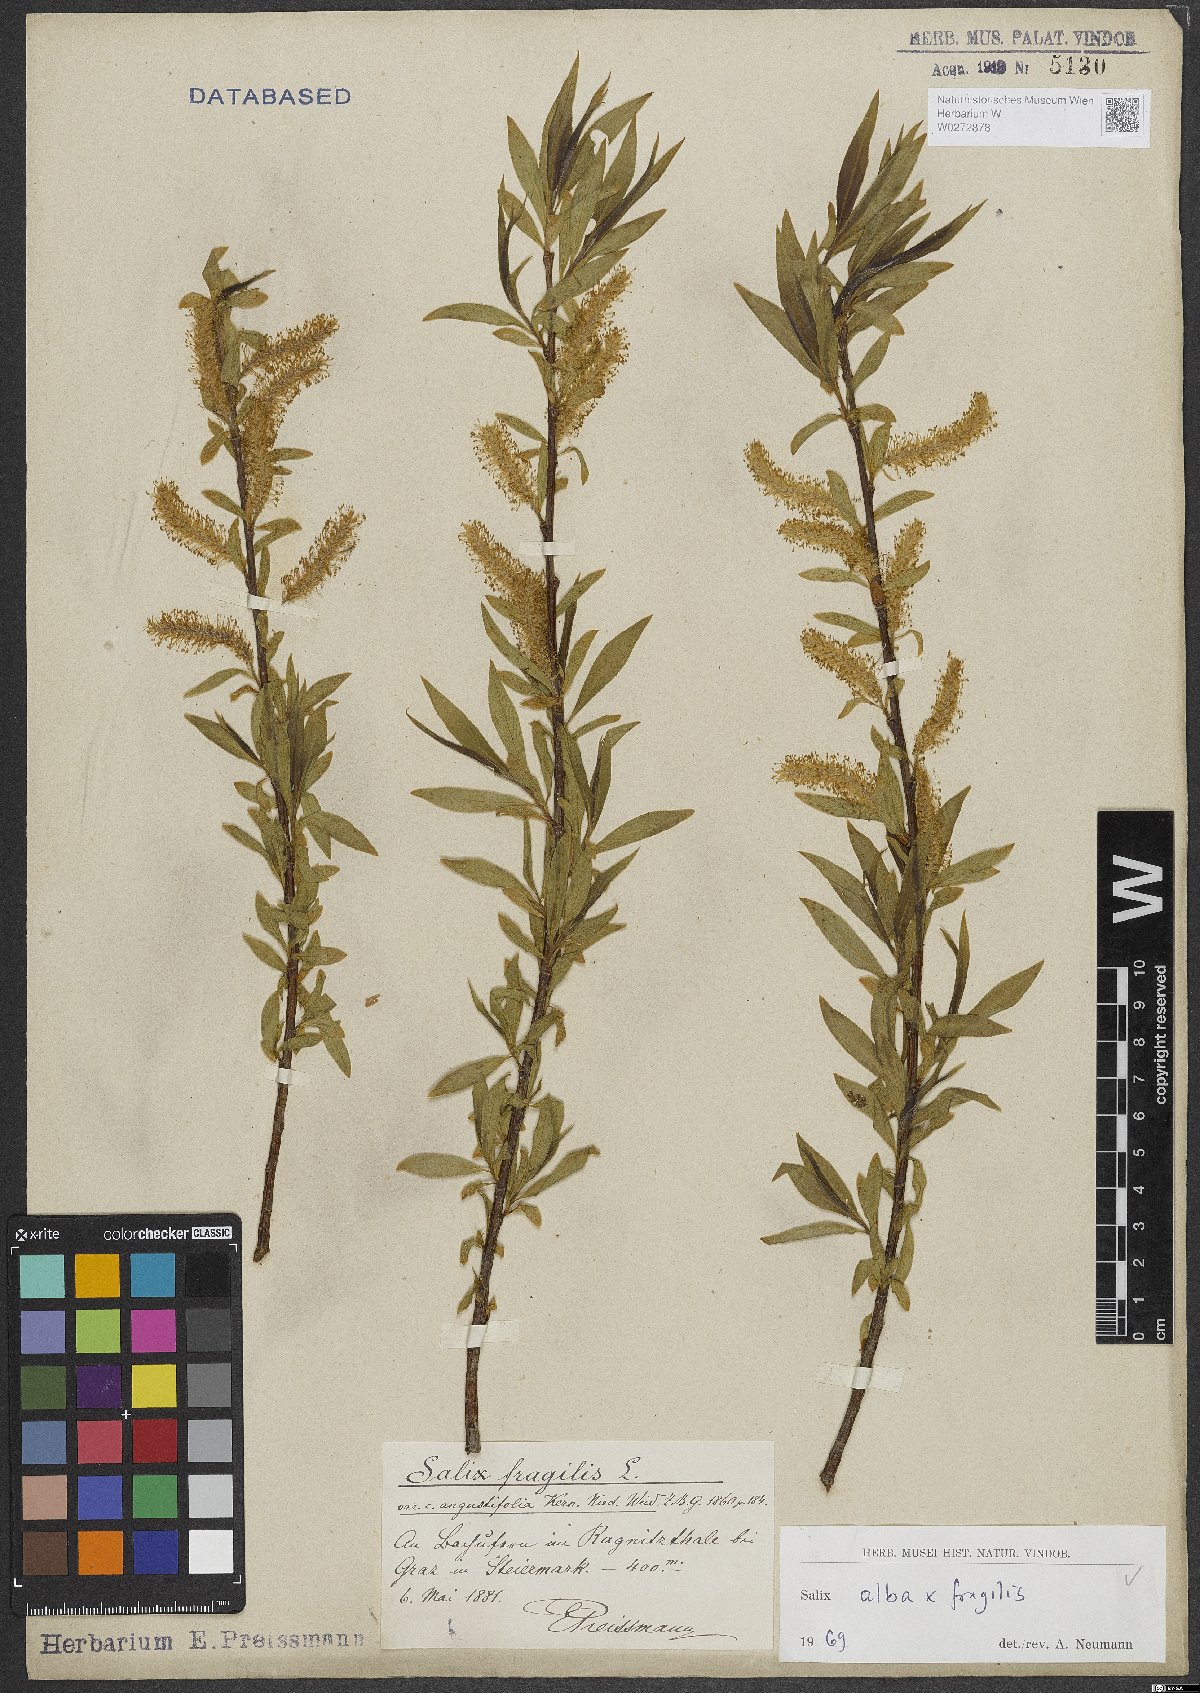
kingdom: Plantae
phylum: Tracheophyta
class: Magnoliopsida
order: Malpighiales
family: Salicaceae
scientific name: Salicaceae
